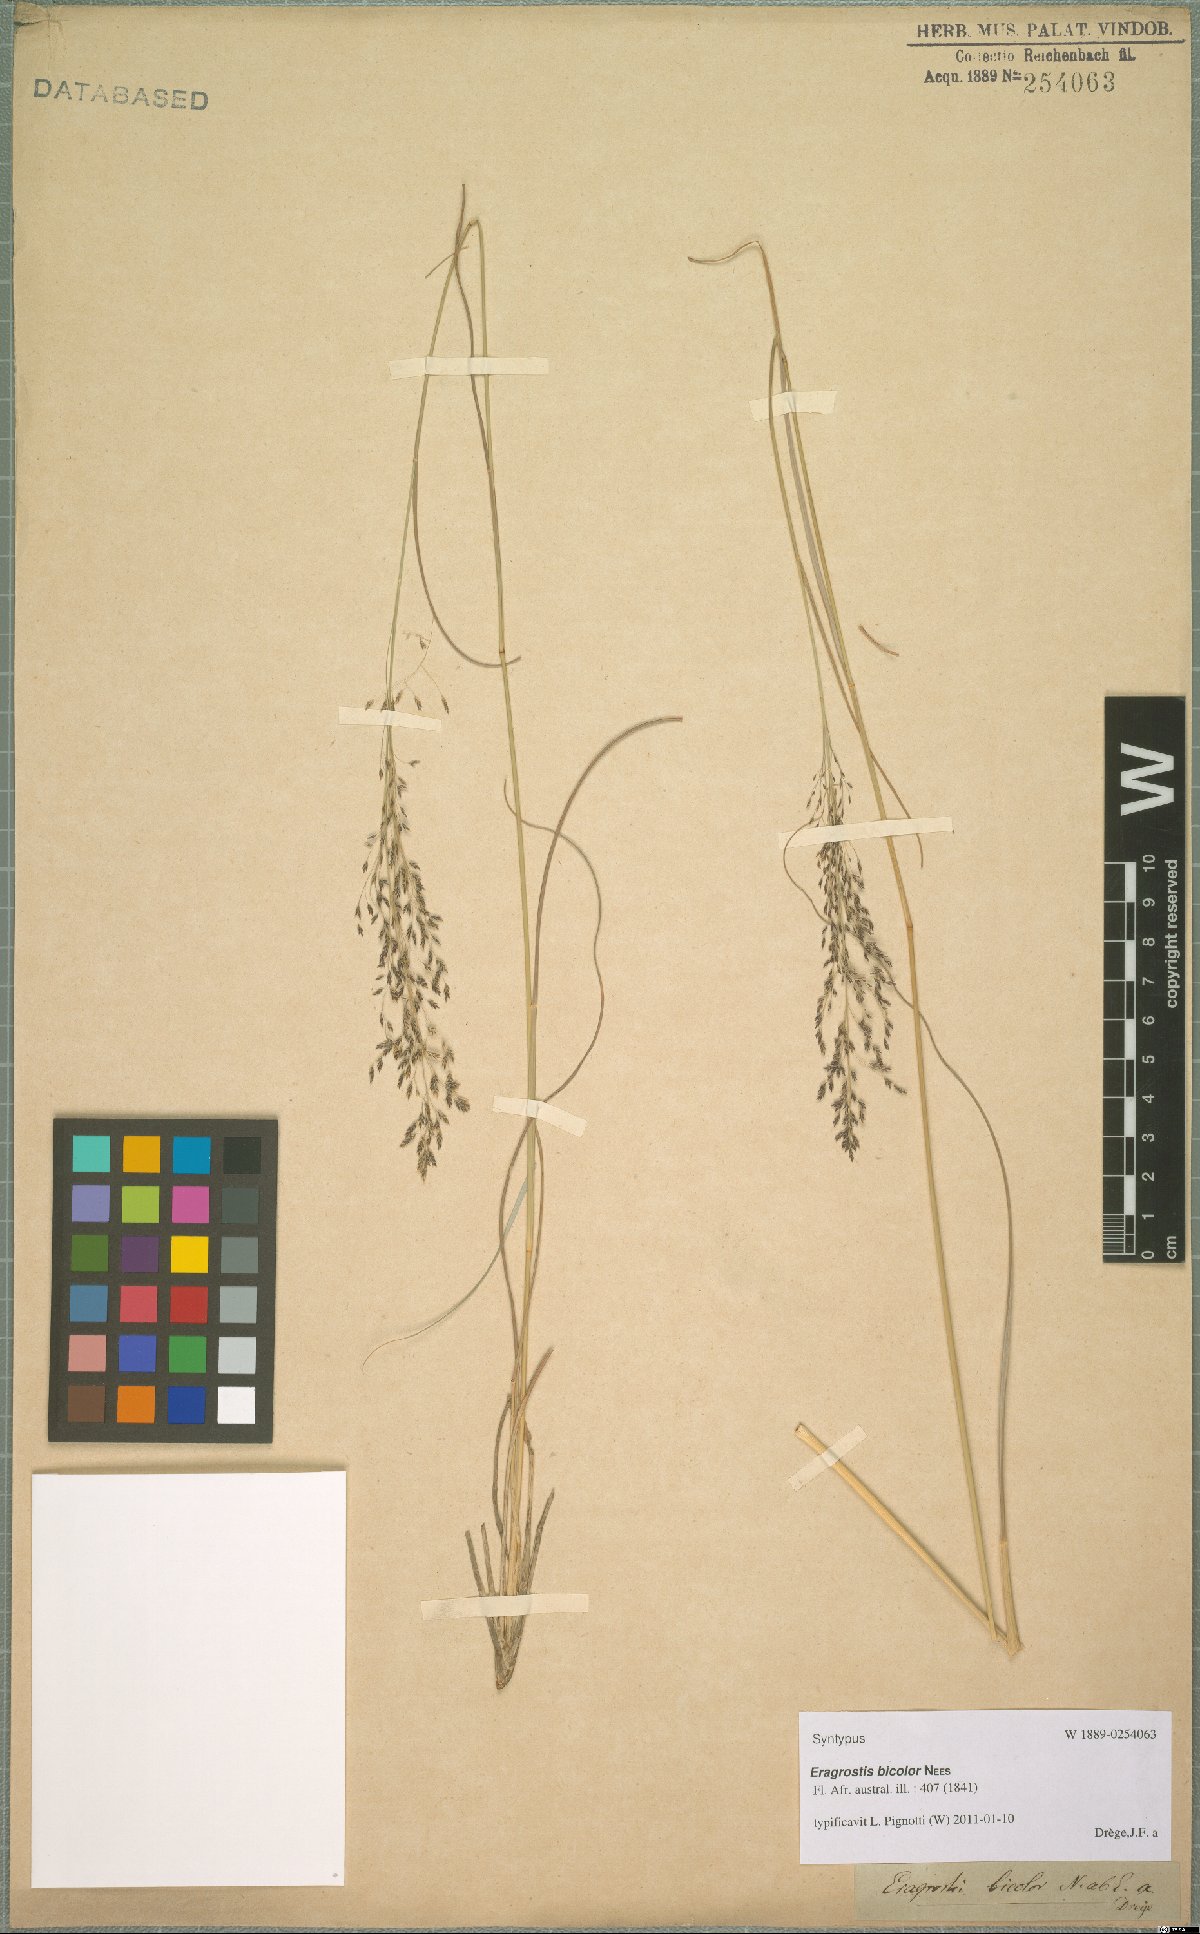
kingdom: Plantae
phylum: Tracheophyta
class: Liliopsida
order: Poales
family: Poaceae
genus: Eragrostis
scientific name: Eragrostis bicolor
